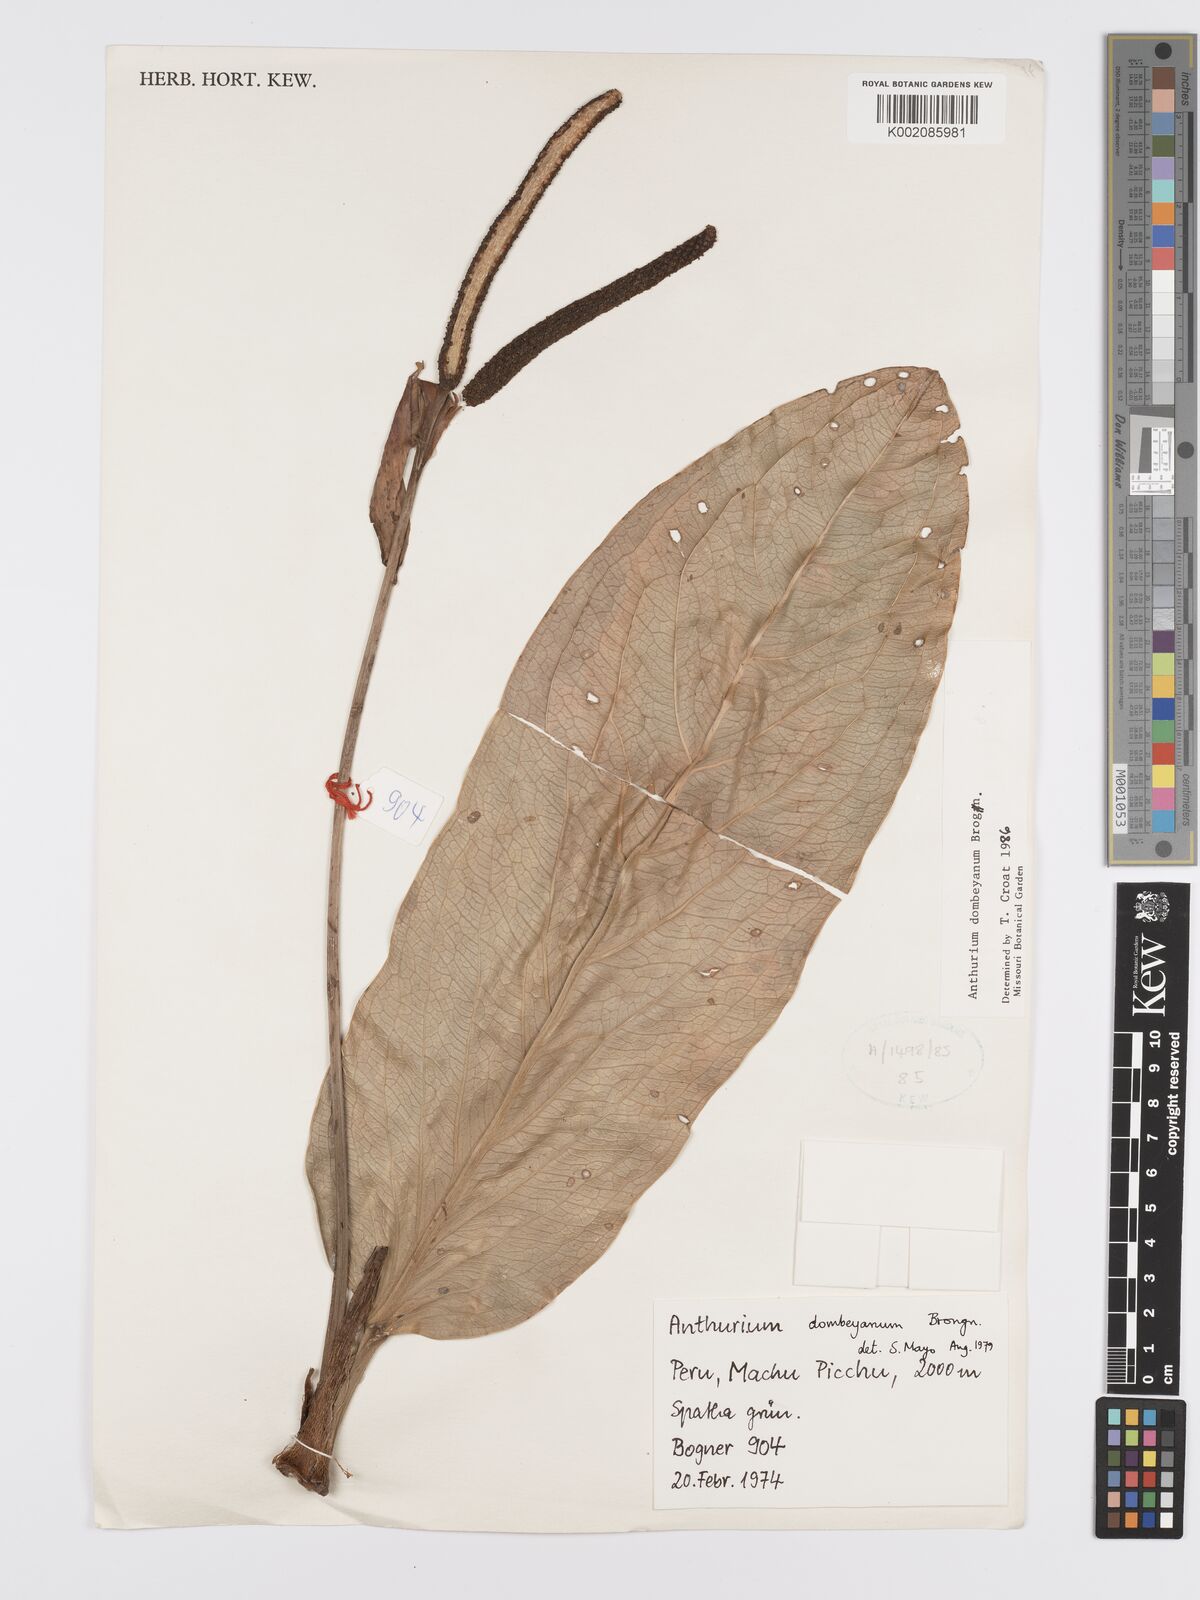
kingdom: Plantae
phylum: Tracheophyta
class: Liliopsida
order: Alismatales
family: Araceae
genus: Anthurium
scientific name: Anthurium dombeyanum
